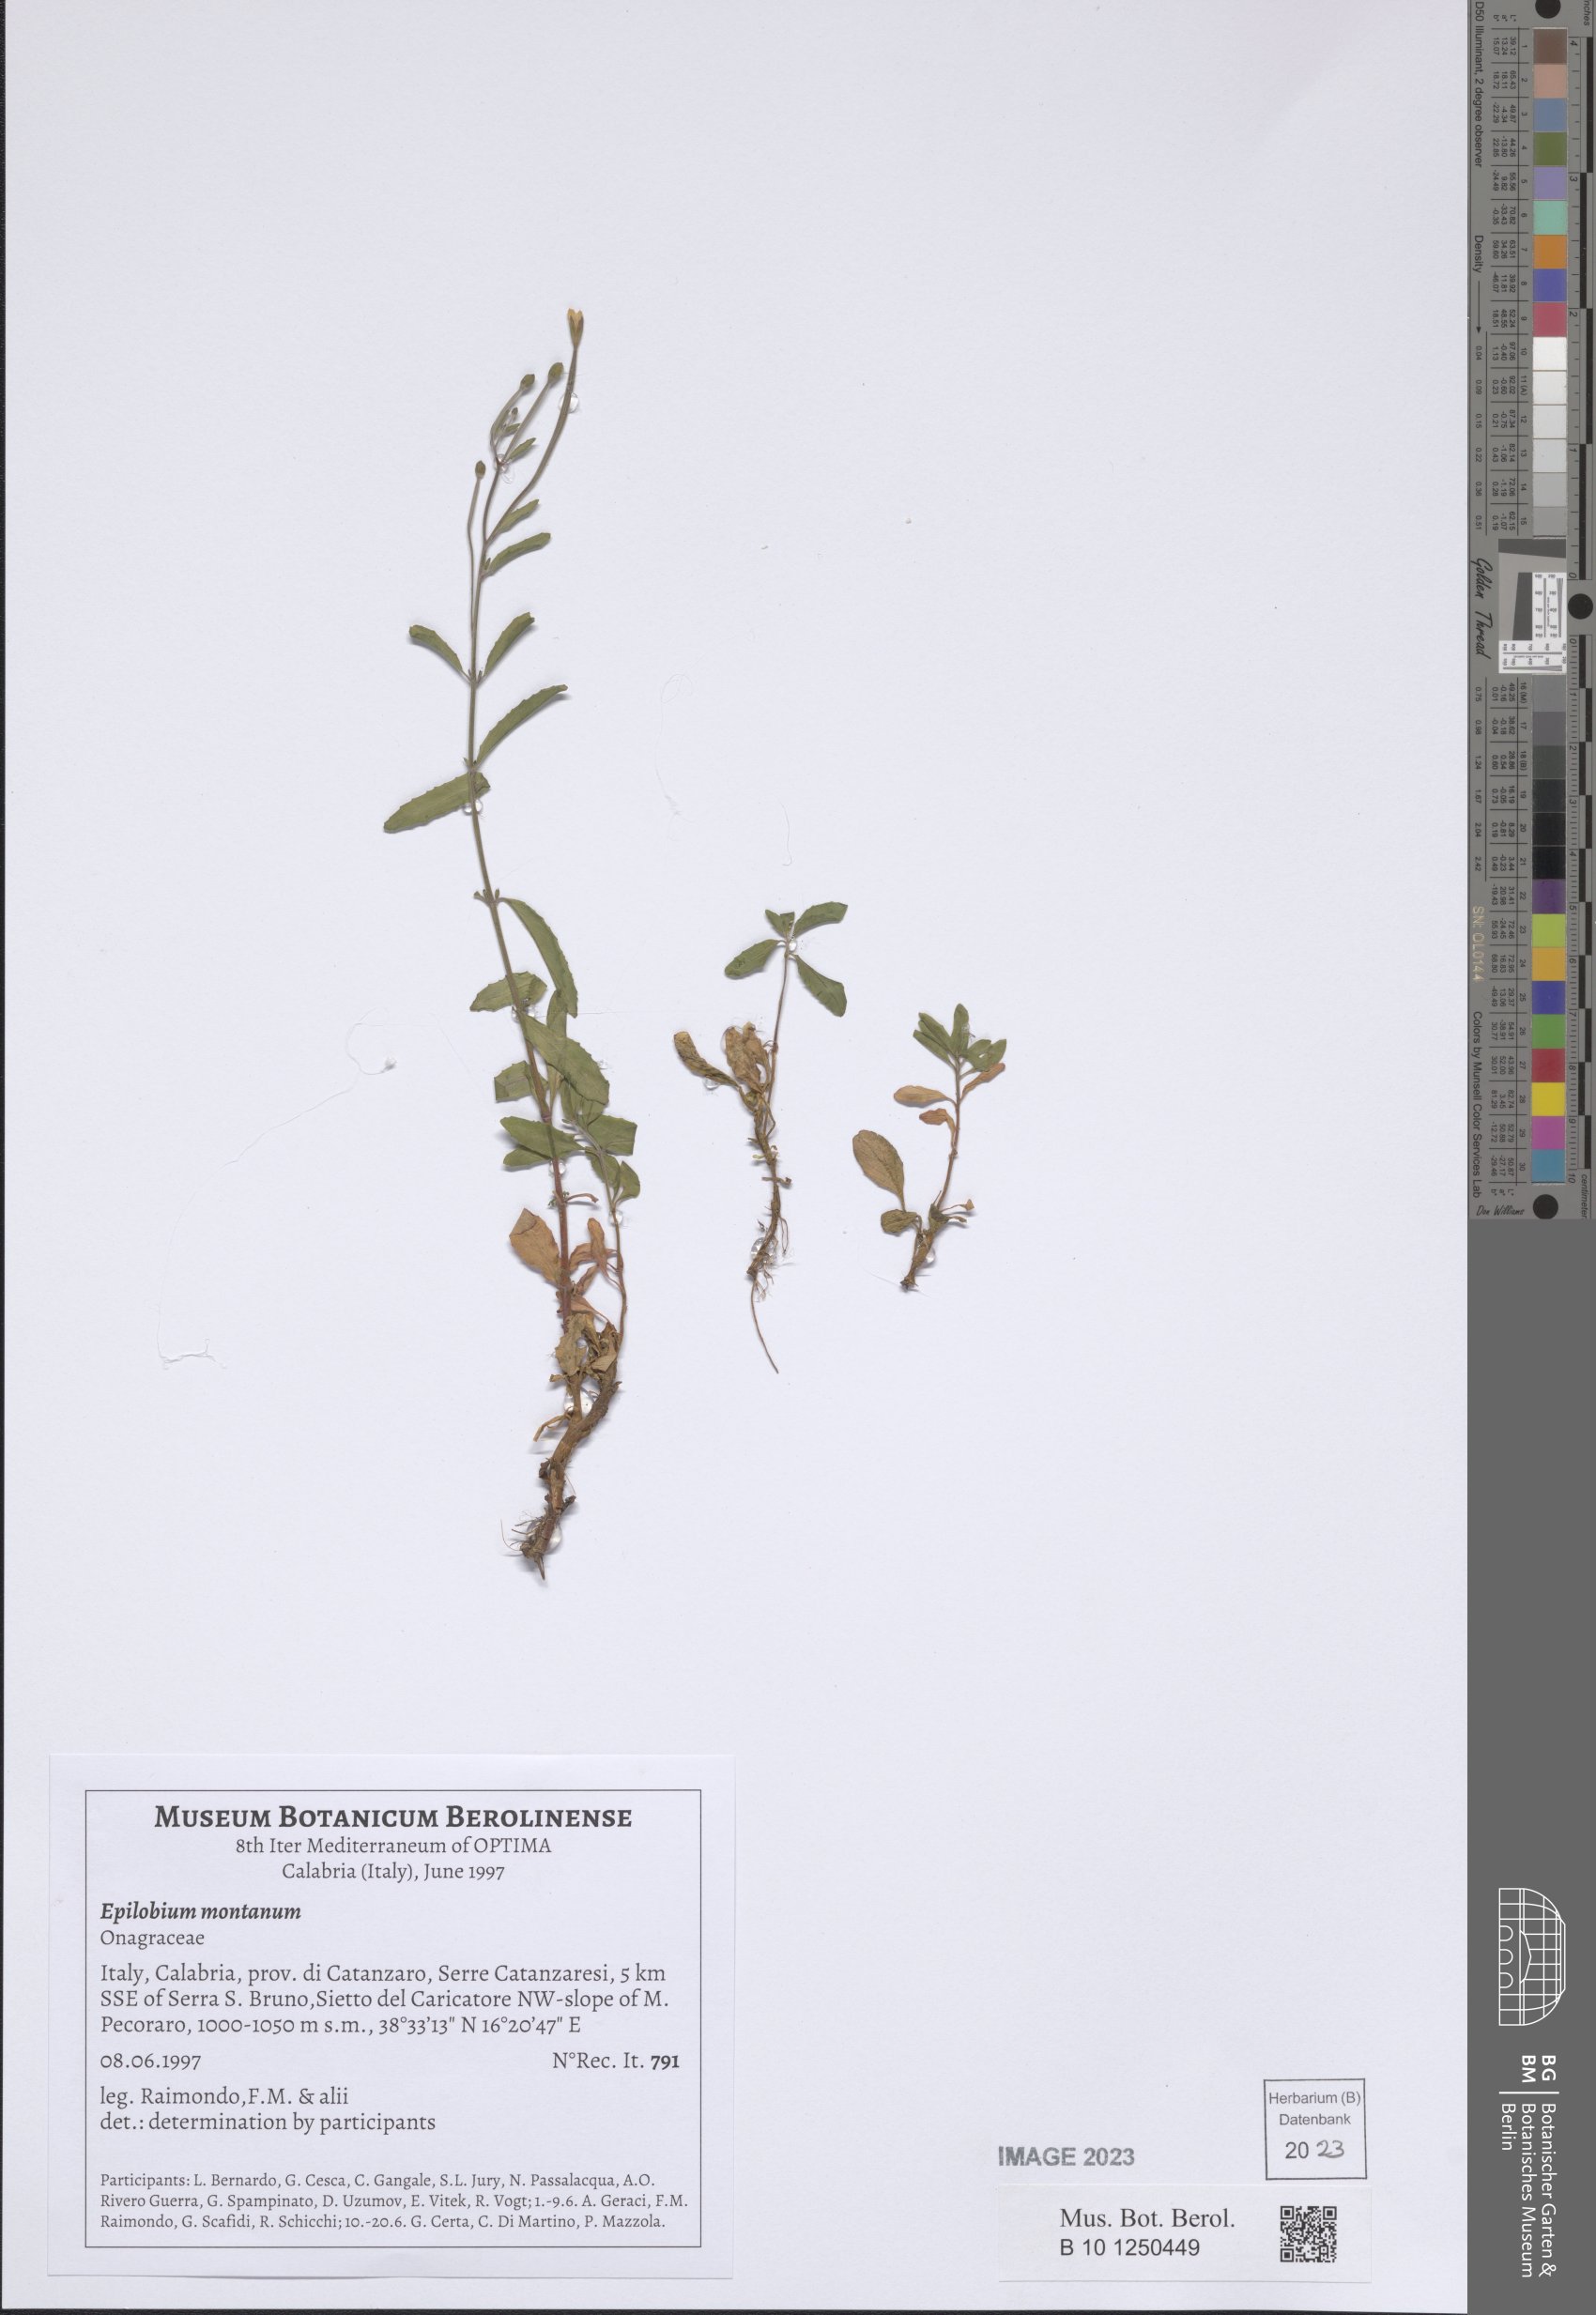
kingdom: Plantae
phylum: Tracheophyta
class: Magnoliopsida
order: Myrtales
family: Onagraceae
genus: Epilobium
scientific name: Epilobium montanum
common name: Broad-leaved willowherb
